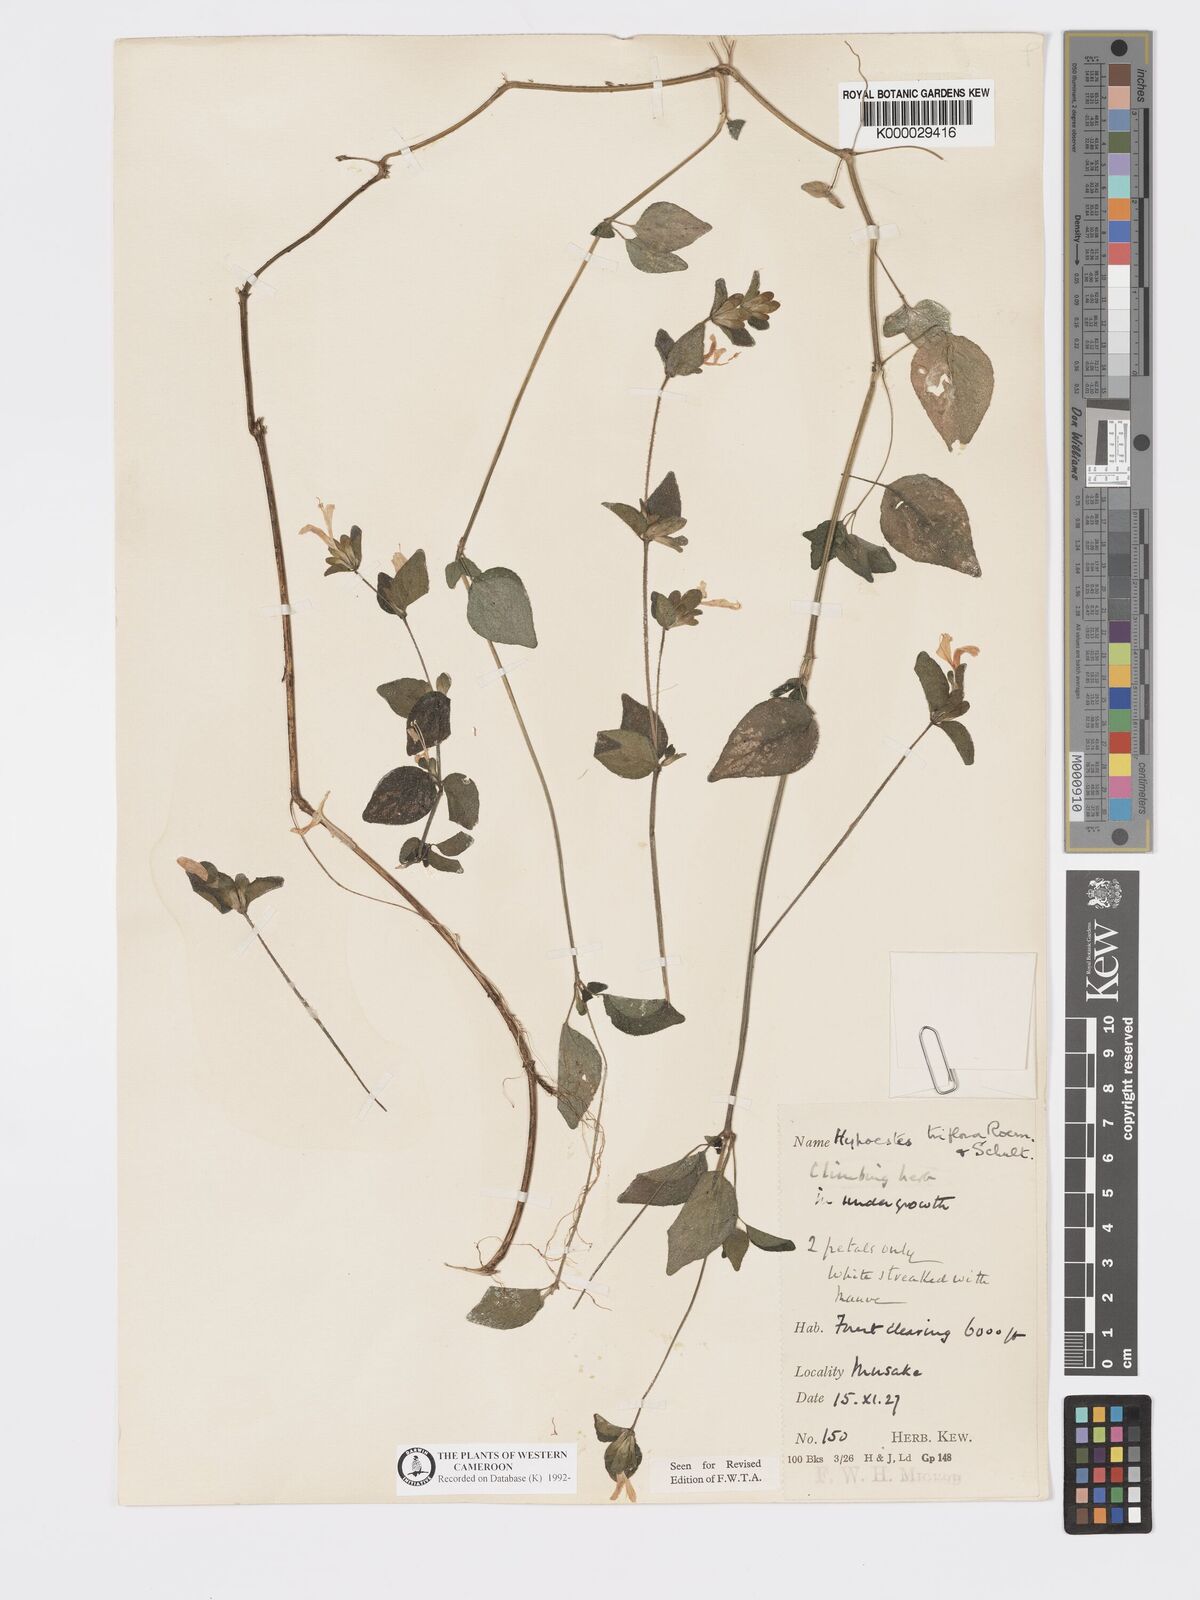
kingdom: Plantae
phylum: Tracheophyta
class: Magnoliopsida
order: Lamiales
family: Acanthaceae
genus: Hypoestes
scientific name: Hypoestes triflora
